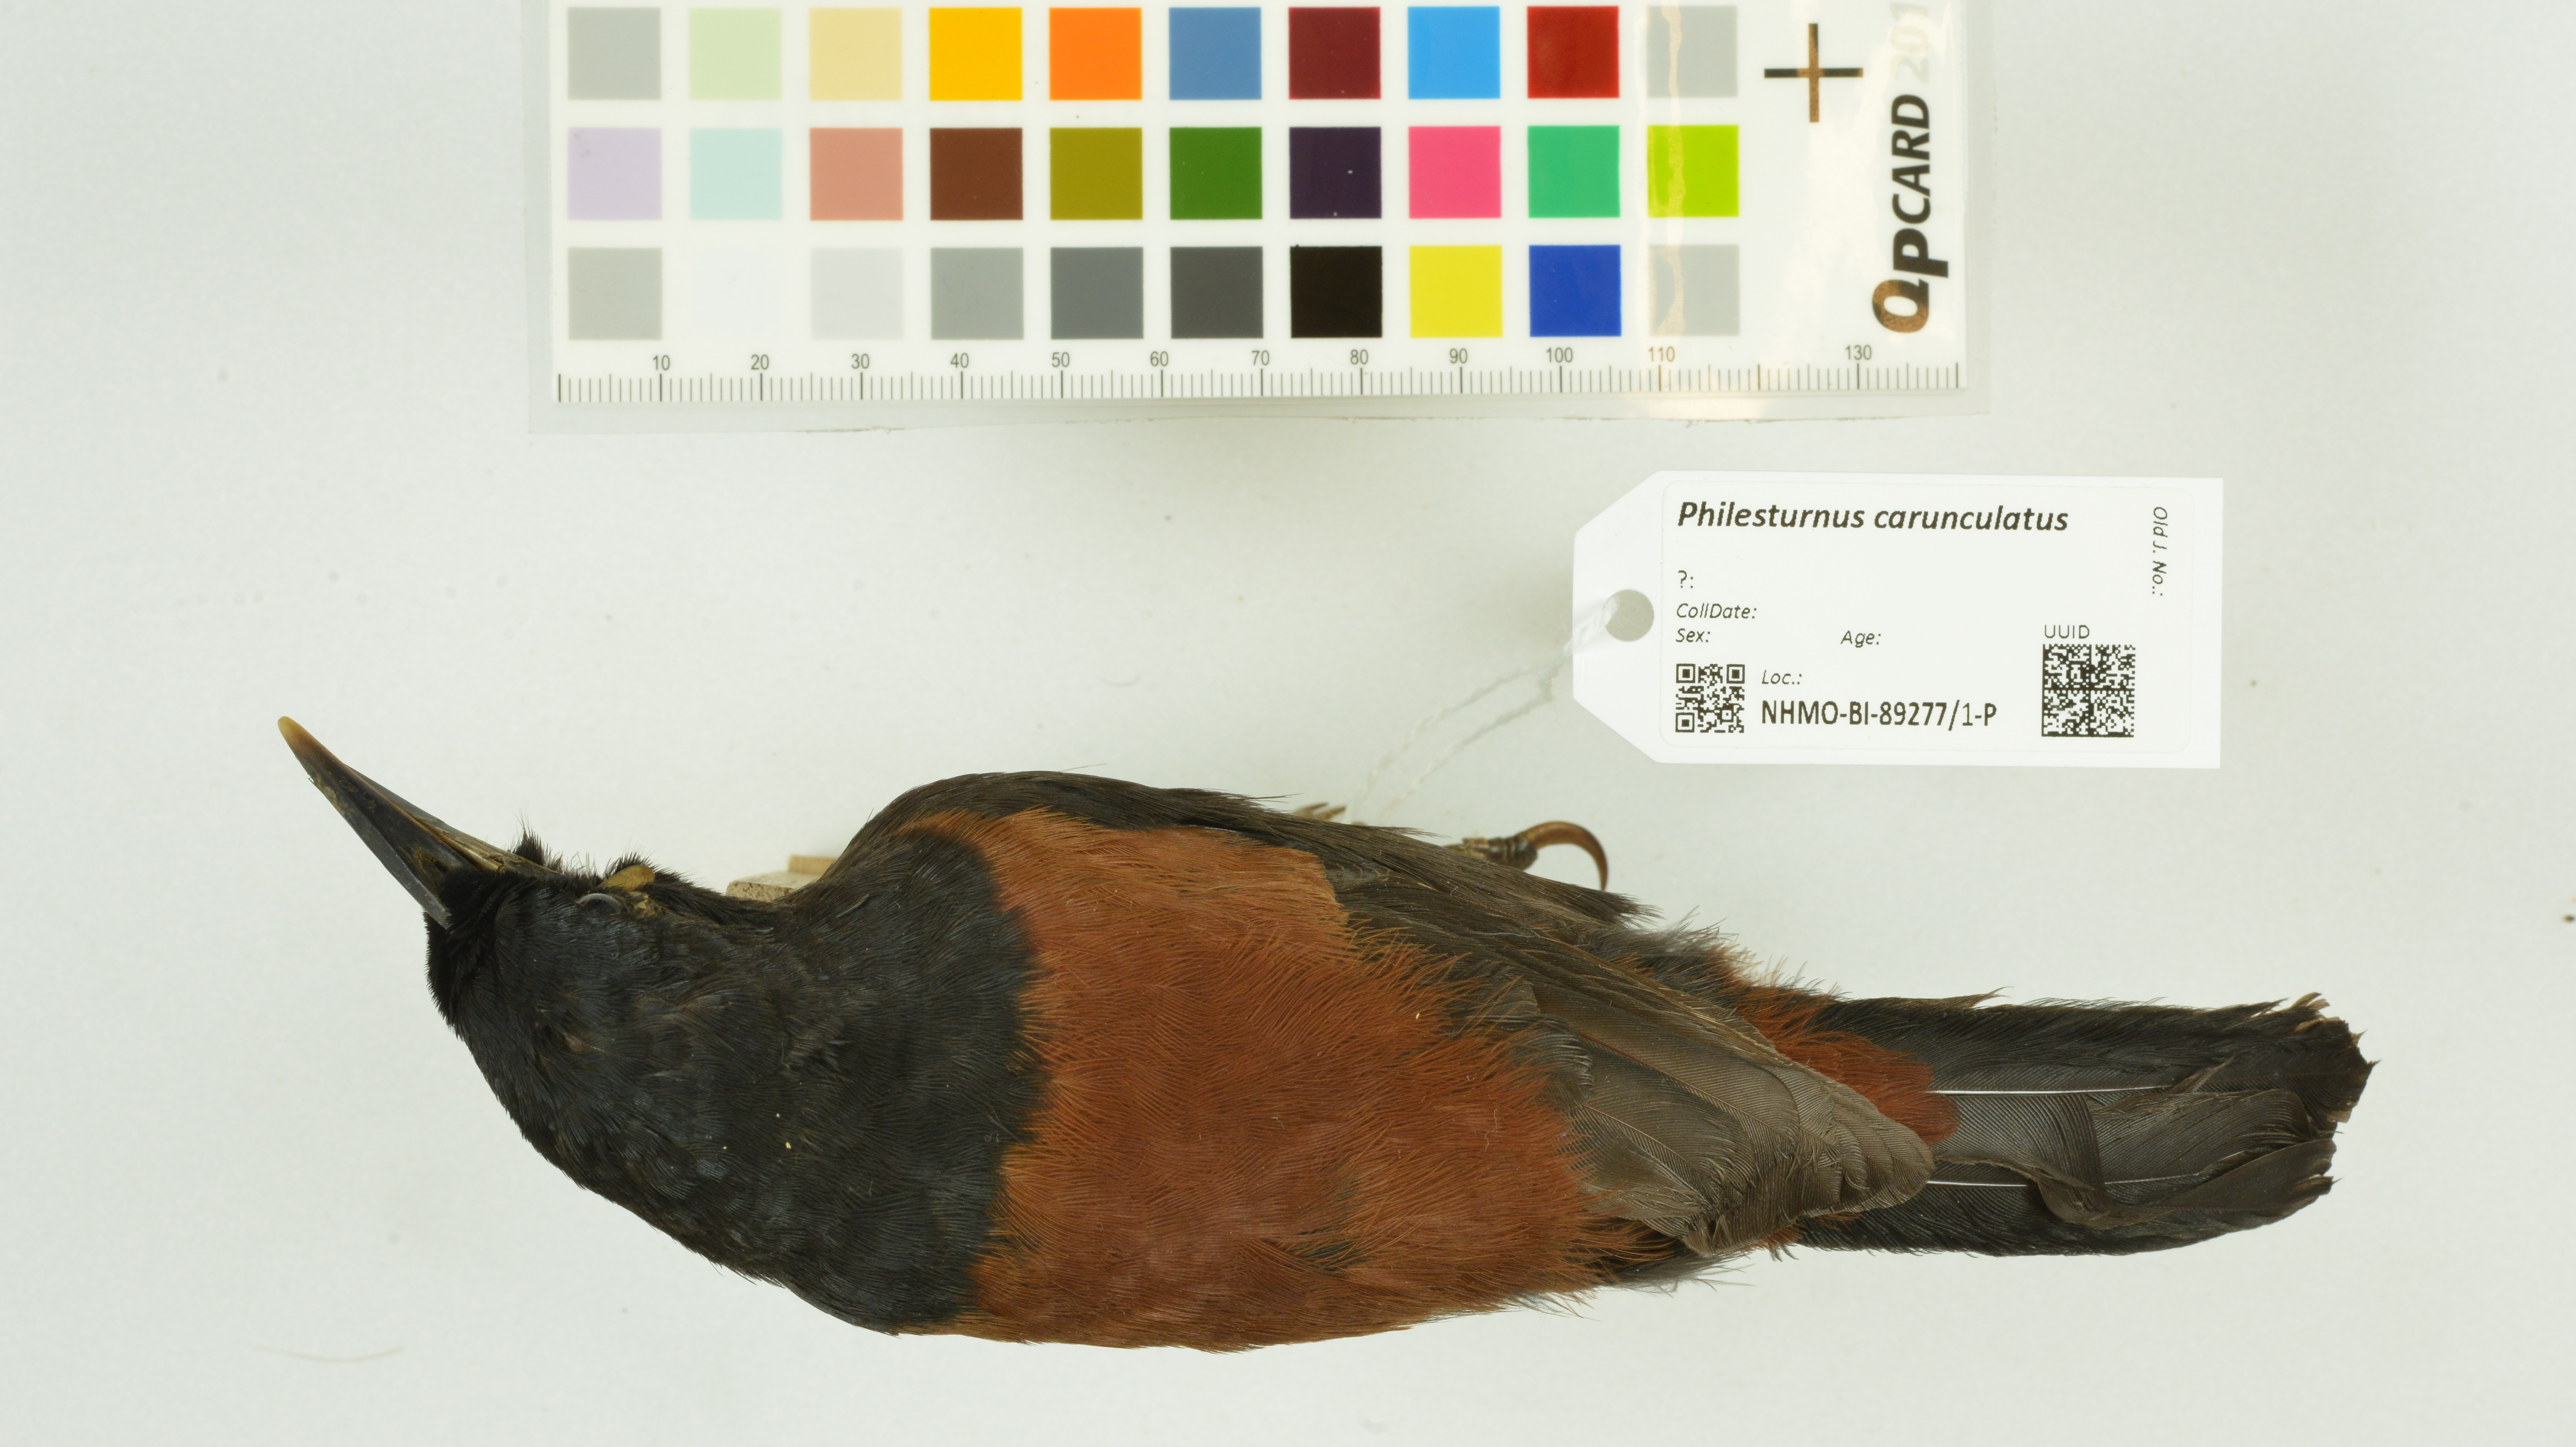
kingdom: Animalia
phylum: Chordata
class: Aves
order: Passeriformes
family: Callaeatidae
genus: Philesturnus
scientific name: Philesturnus carunculatus
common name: South island saddleback
